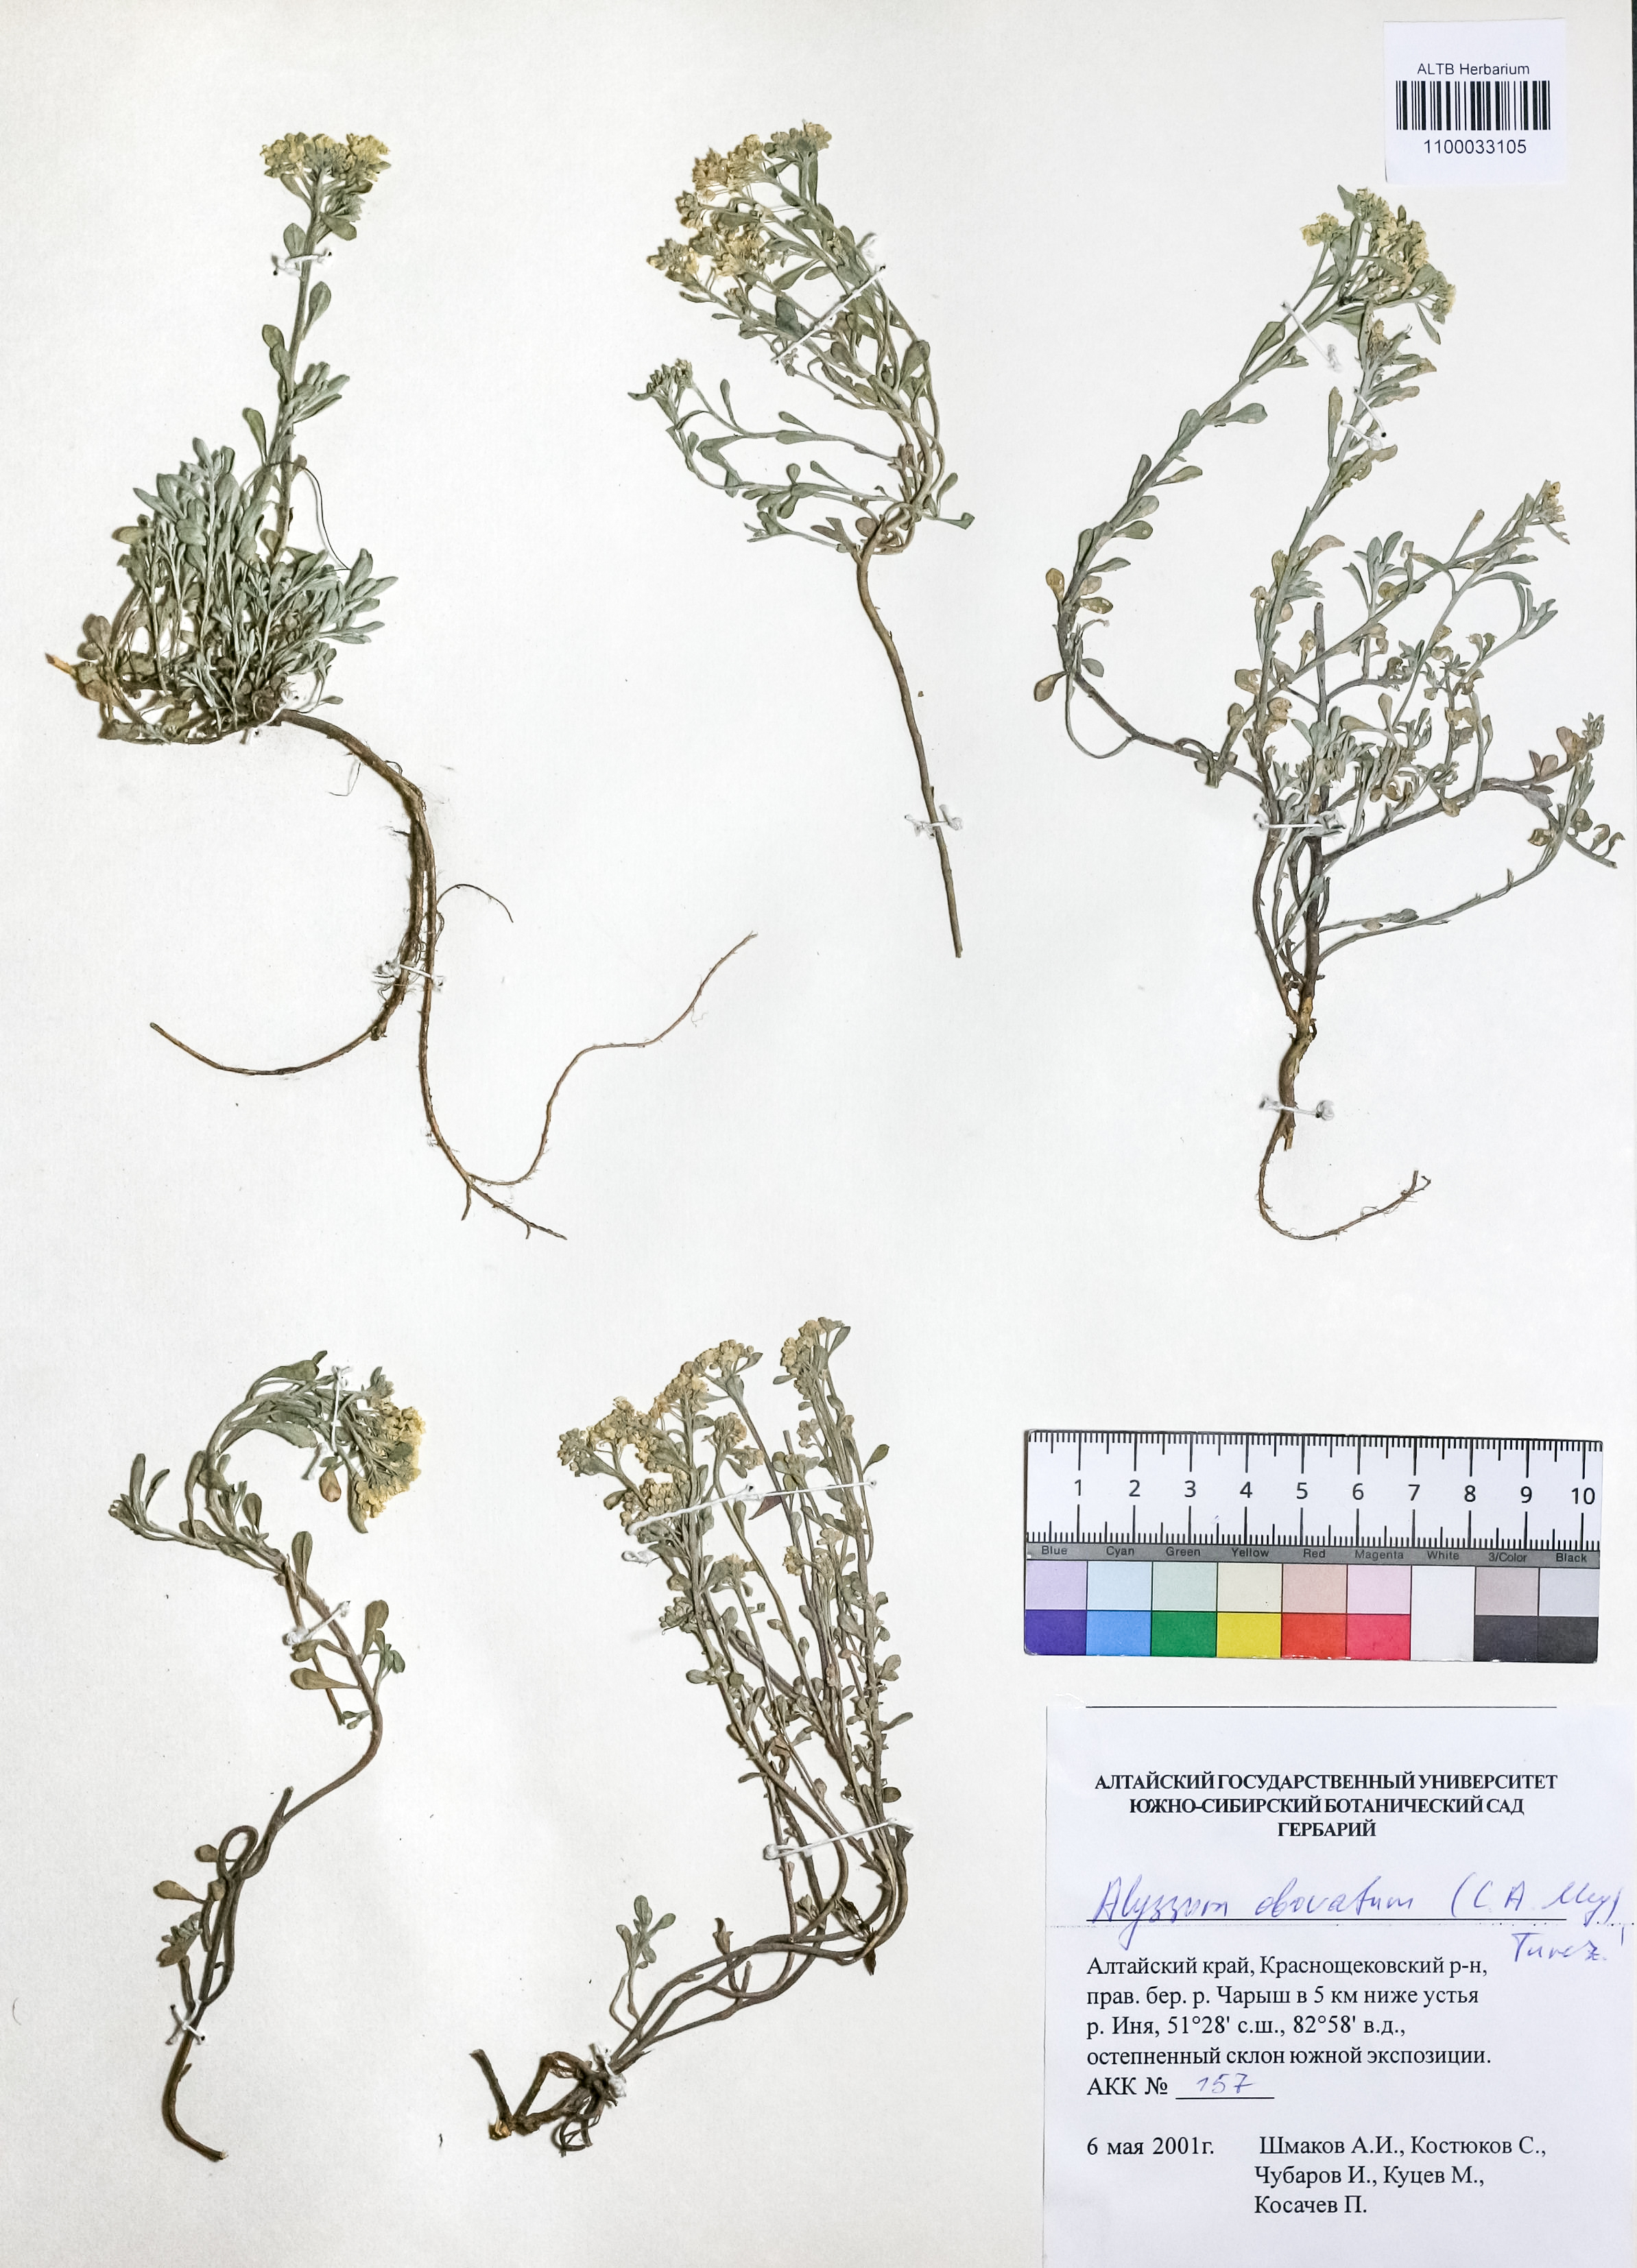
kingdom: Plantae
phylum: Tracheophyta
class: Magnoliopsida
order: Brassicales
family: Brassicaceae
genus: Odontarrhena
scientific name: Odontarrhena obovata
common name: American alyssum
